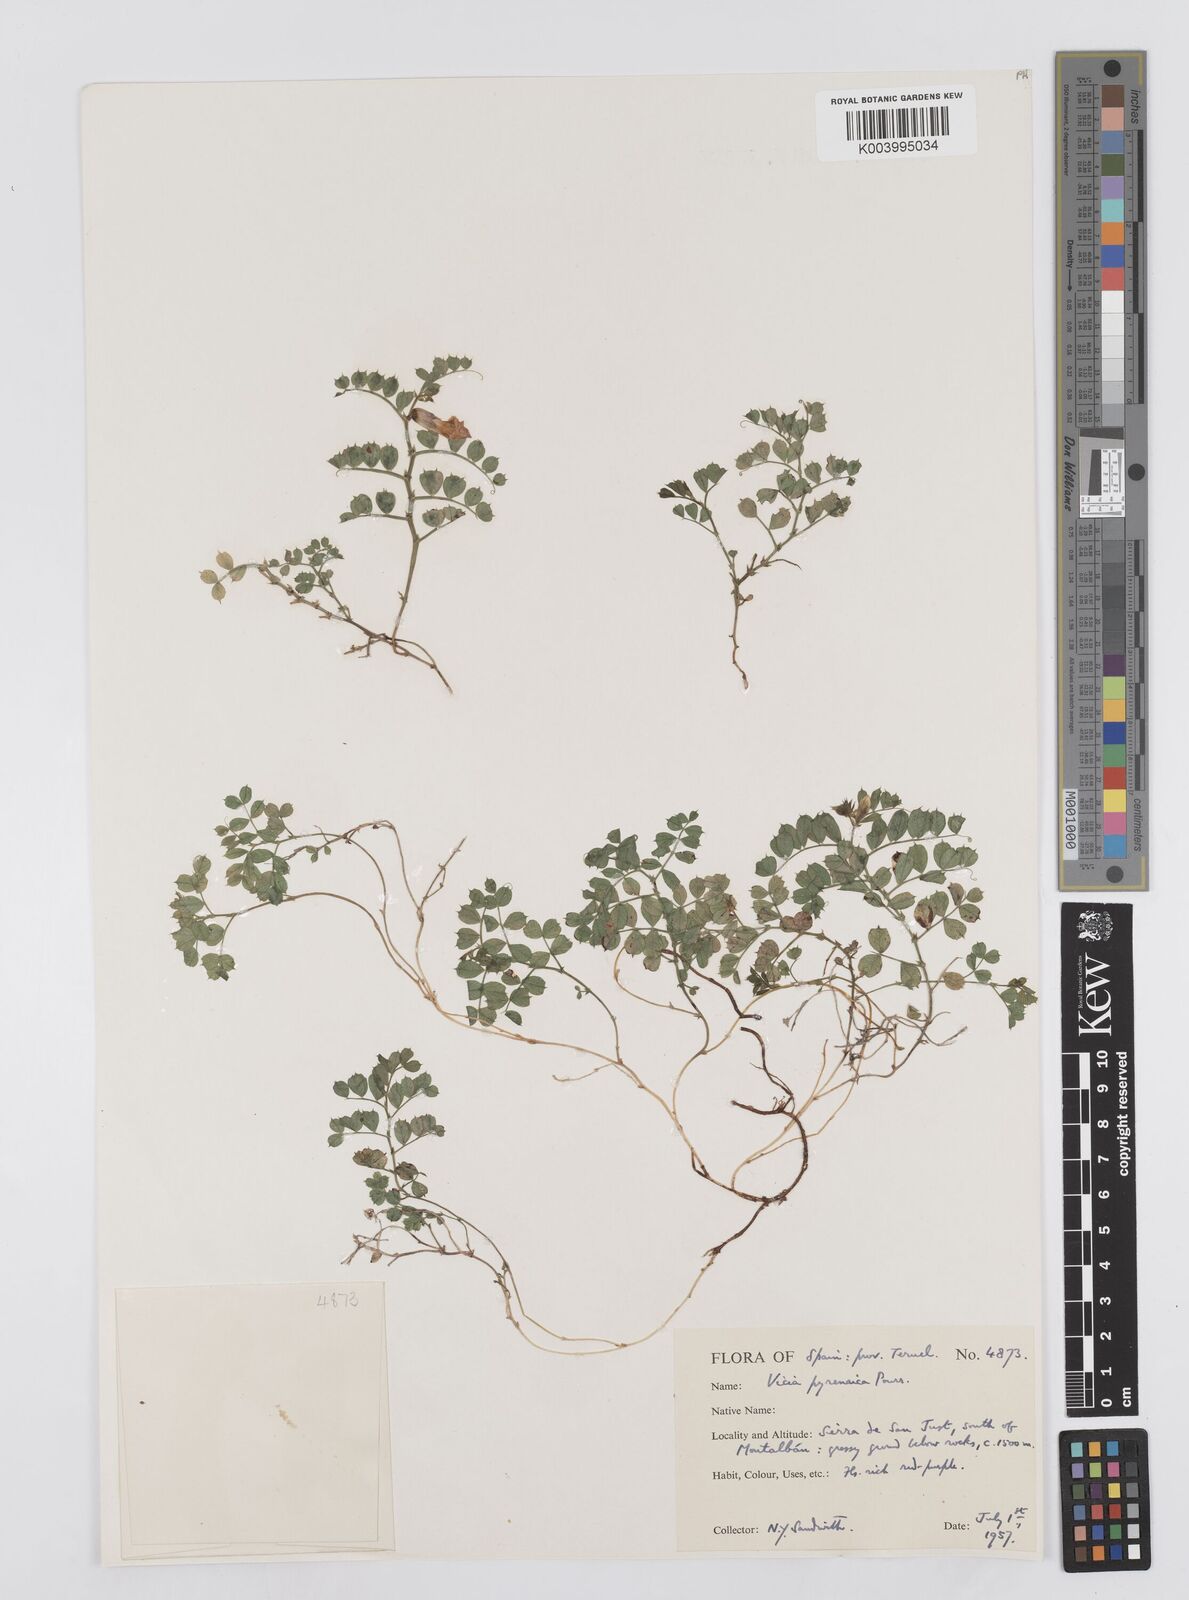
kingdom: Plantae
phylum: Tracheophyta
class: Magnoliopsida
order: Fabales
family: Fabaceae
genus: Vicia
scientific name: Vicia pyrenaica
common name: Pyrenean vetch
